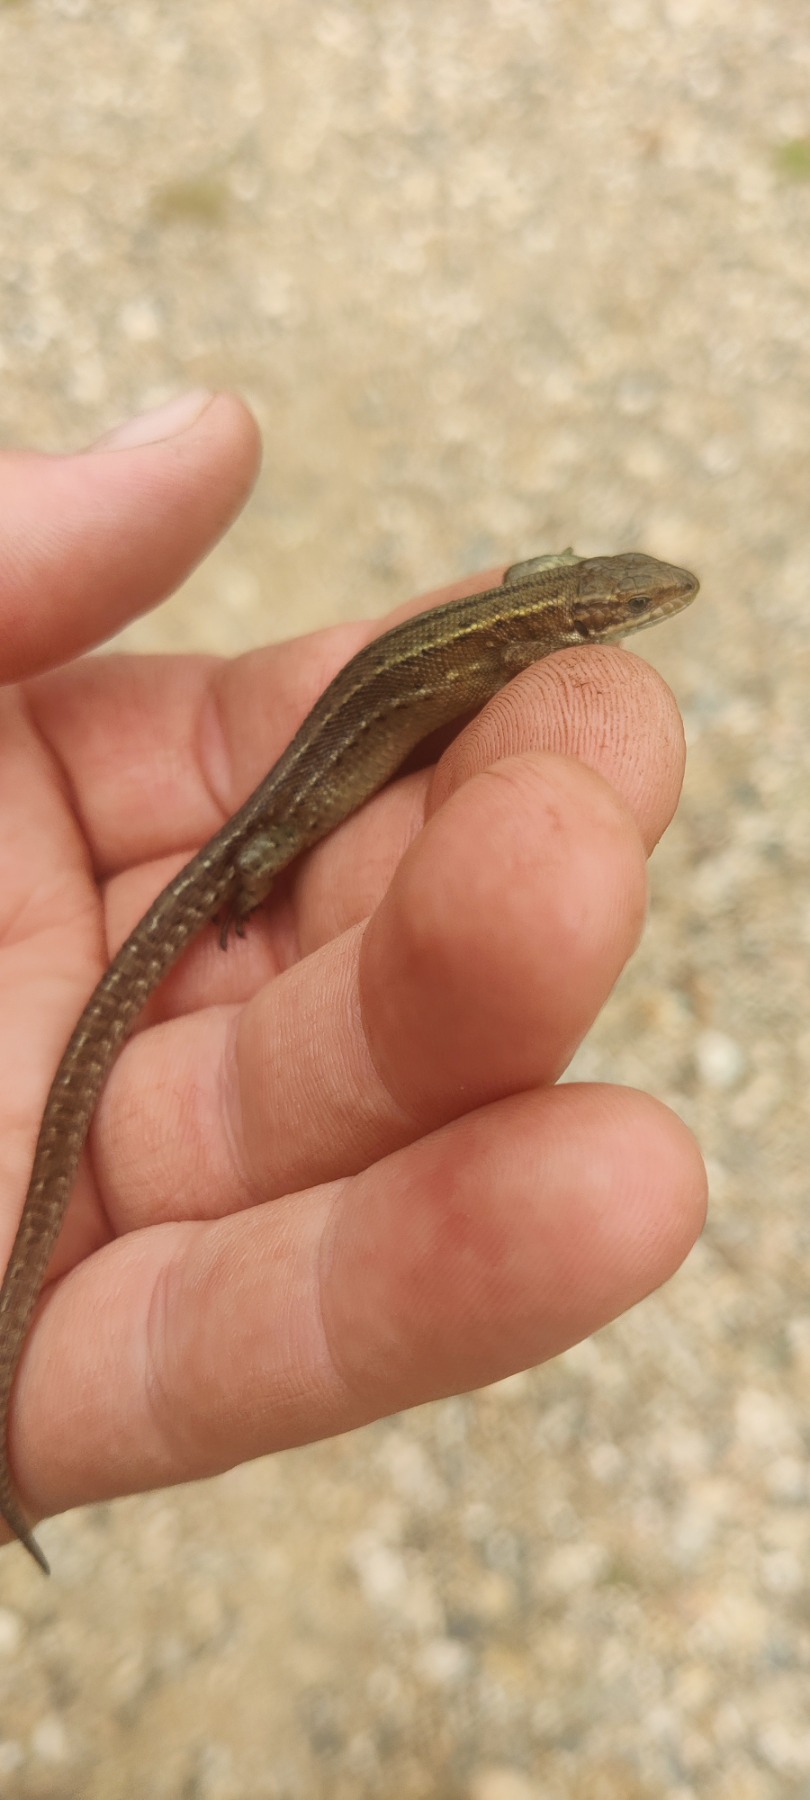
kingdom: Animalia
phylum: Chordata
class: Squamata
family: Lacertidae
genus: Zootoca
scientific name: Zootoca vivipara
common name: Skovfirben
